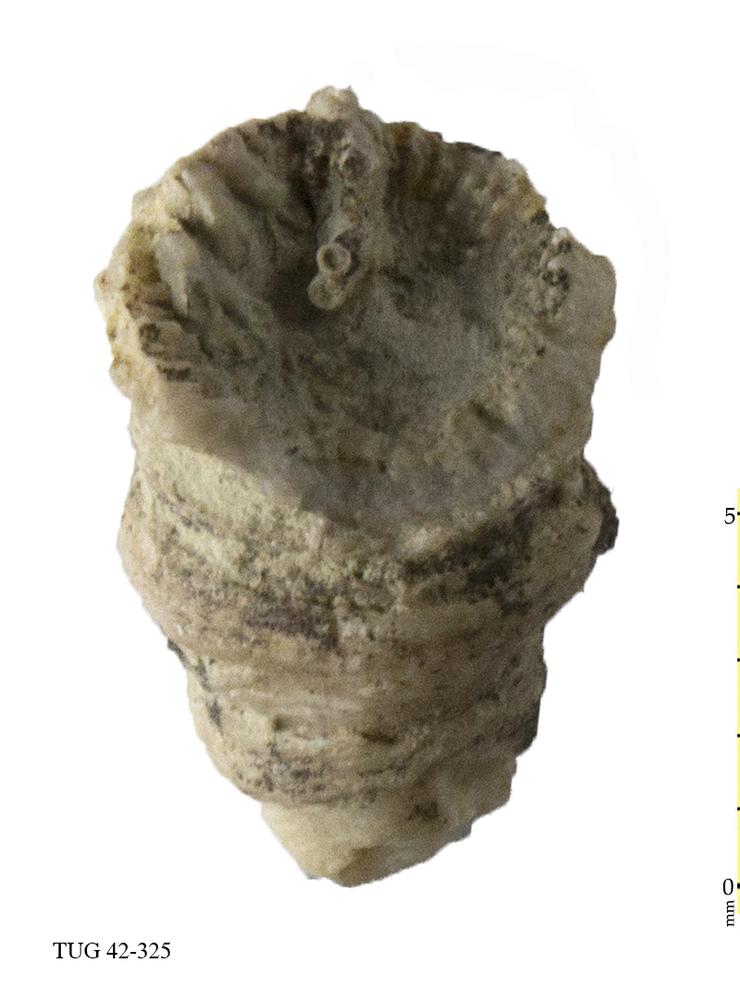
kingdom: Animalia
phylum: Cnidaria
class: Anthozoa
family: Cyathophyllidae
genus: Cyathophyllum
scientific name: Cyathophyllum
